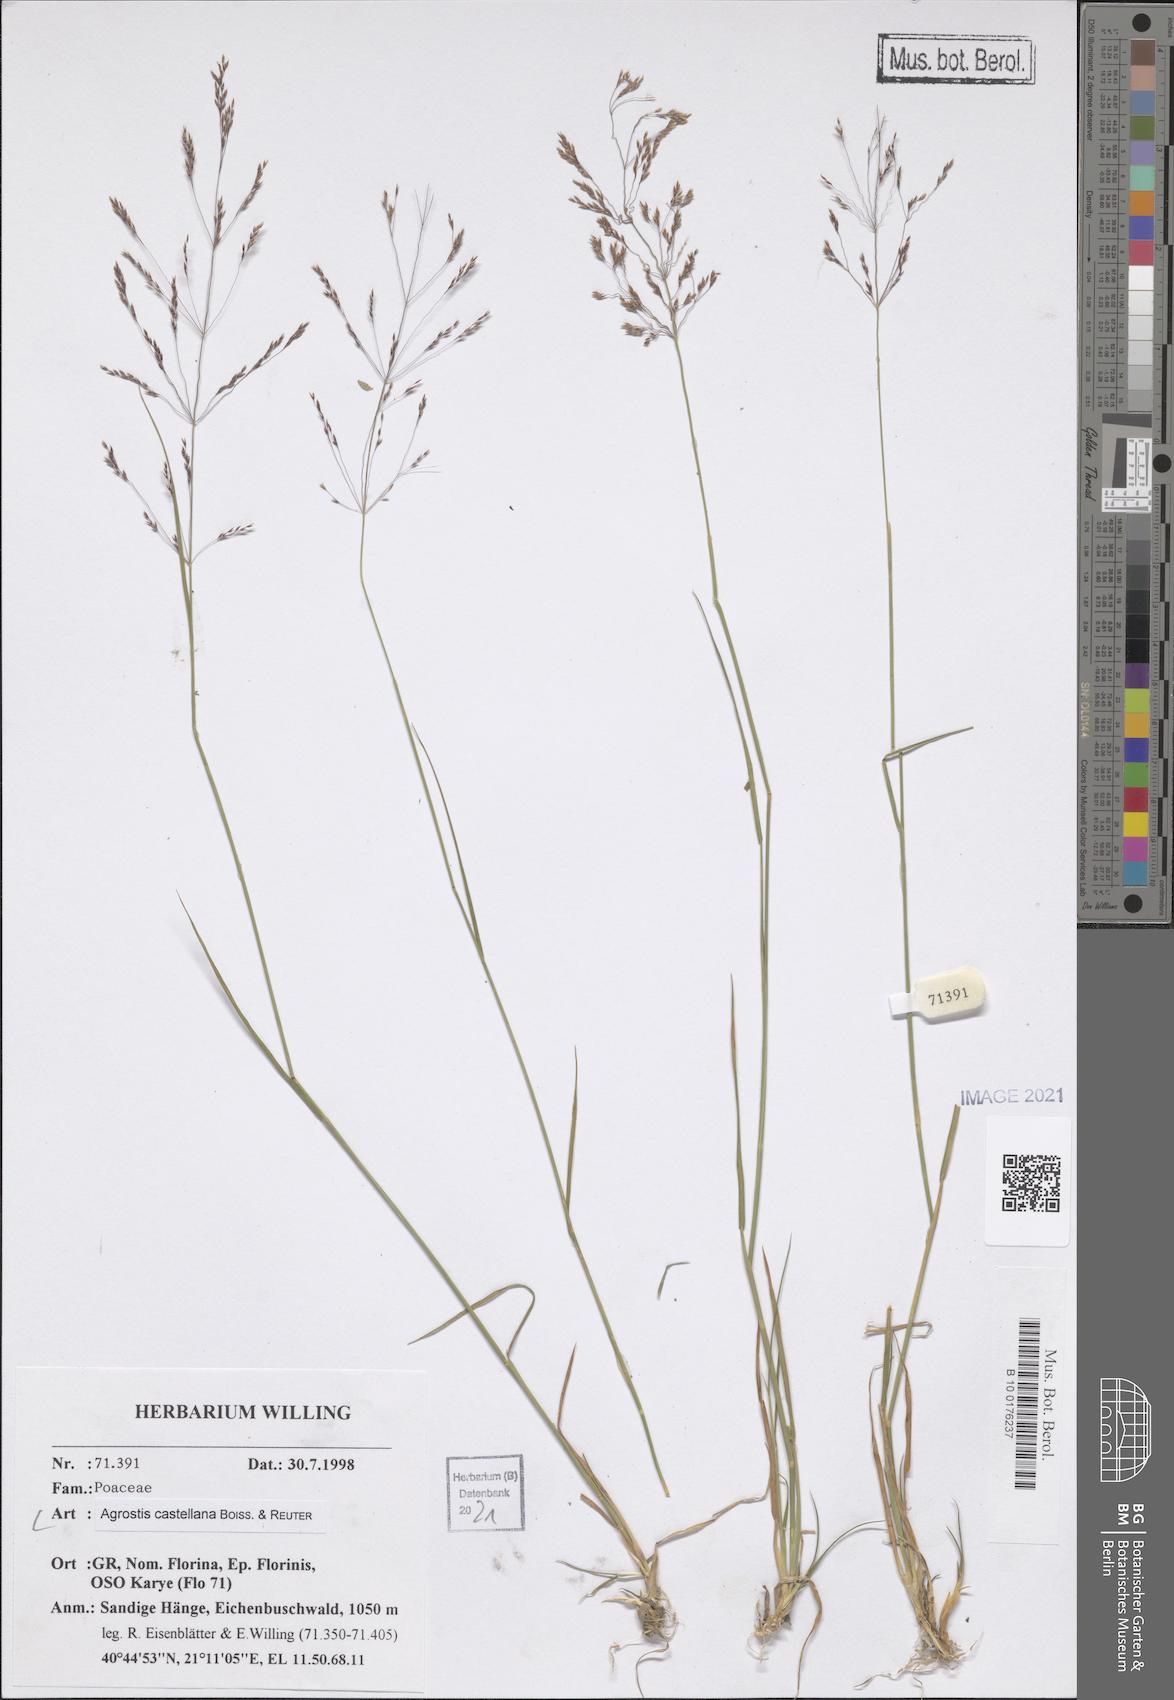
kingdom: Plantae
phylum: Tracheophyta
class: Liliopsida
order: Poales
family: Poaceae
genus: Agrostis
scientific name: Agrostis castellana
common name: Highland bent
